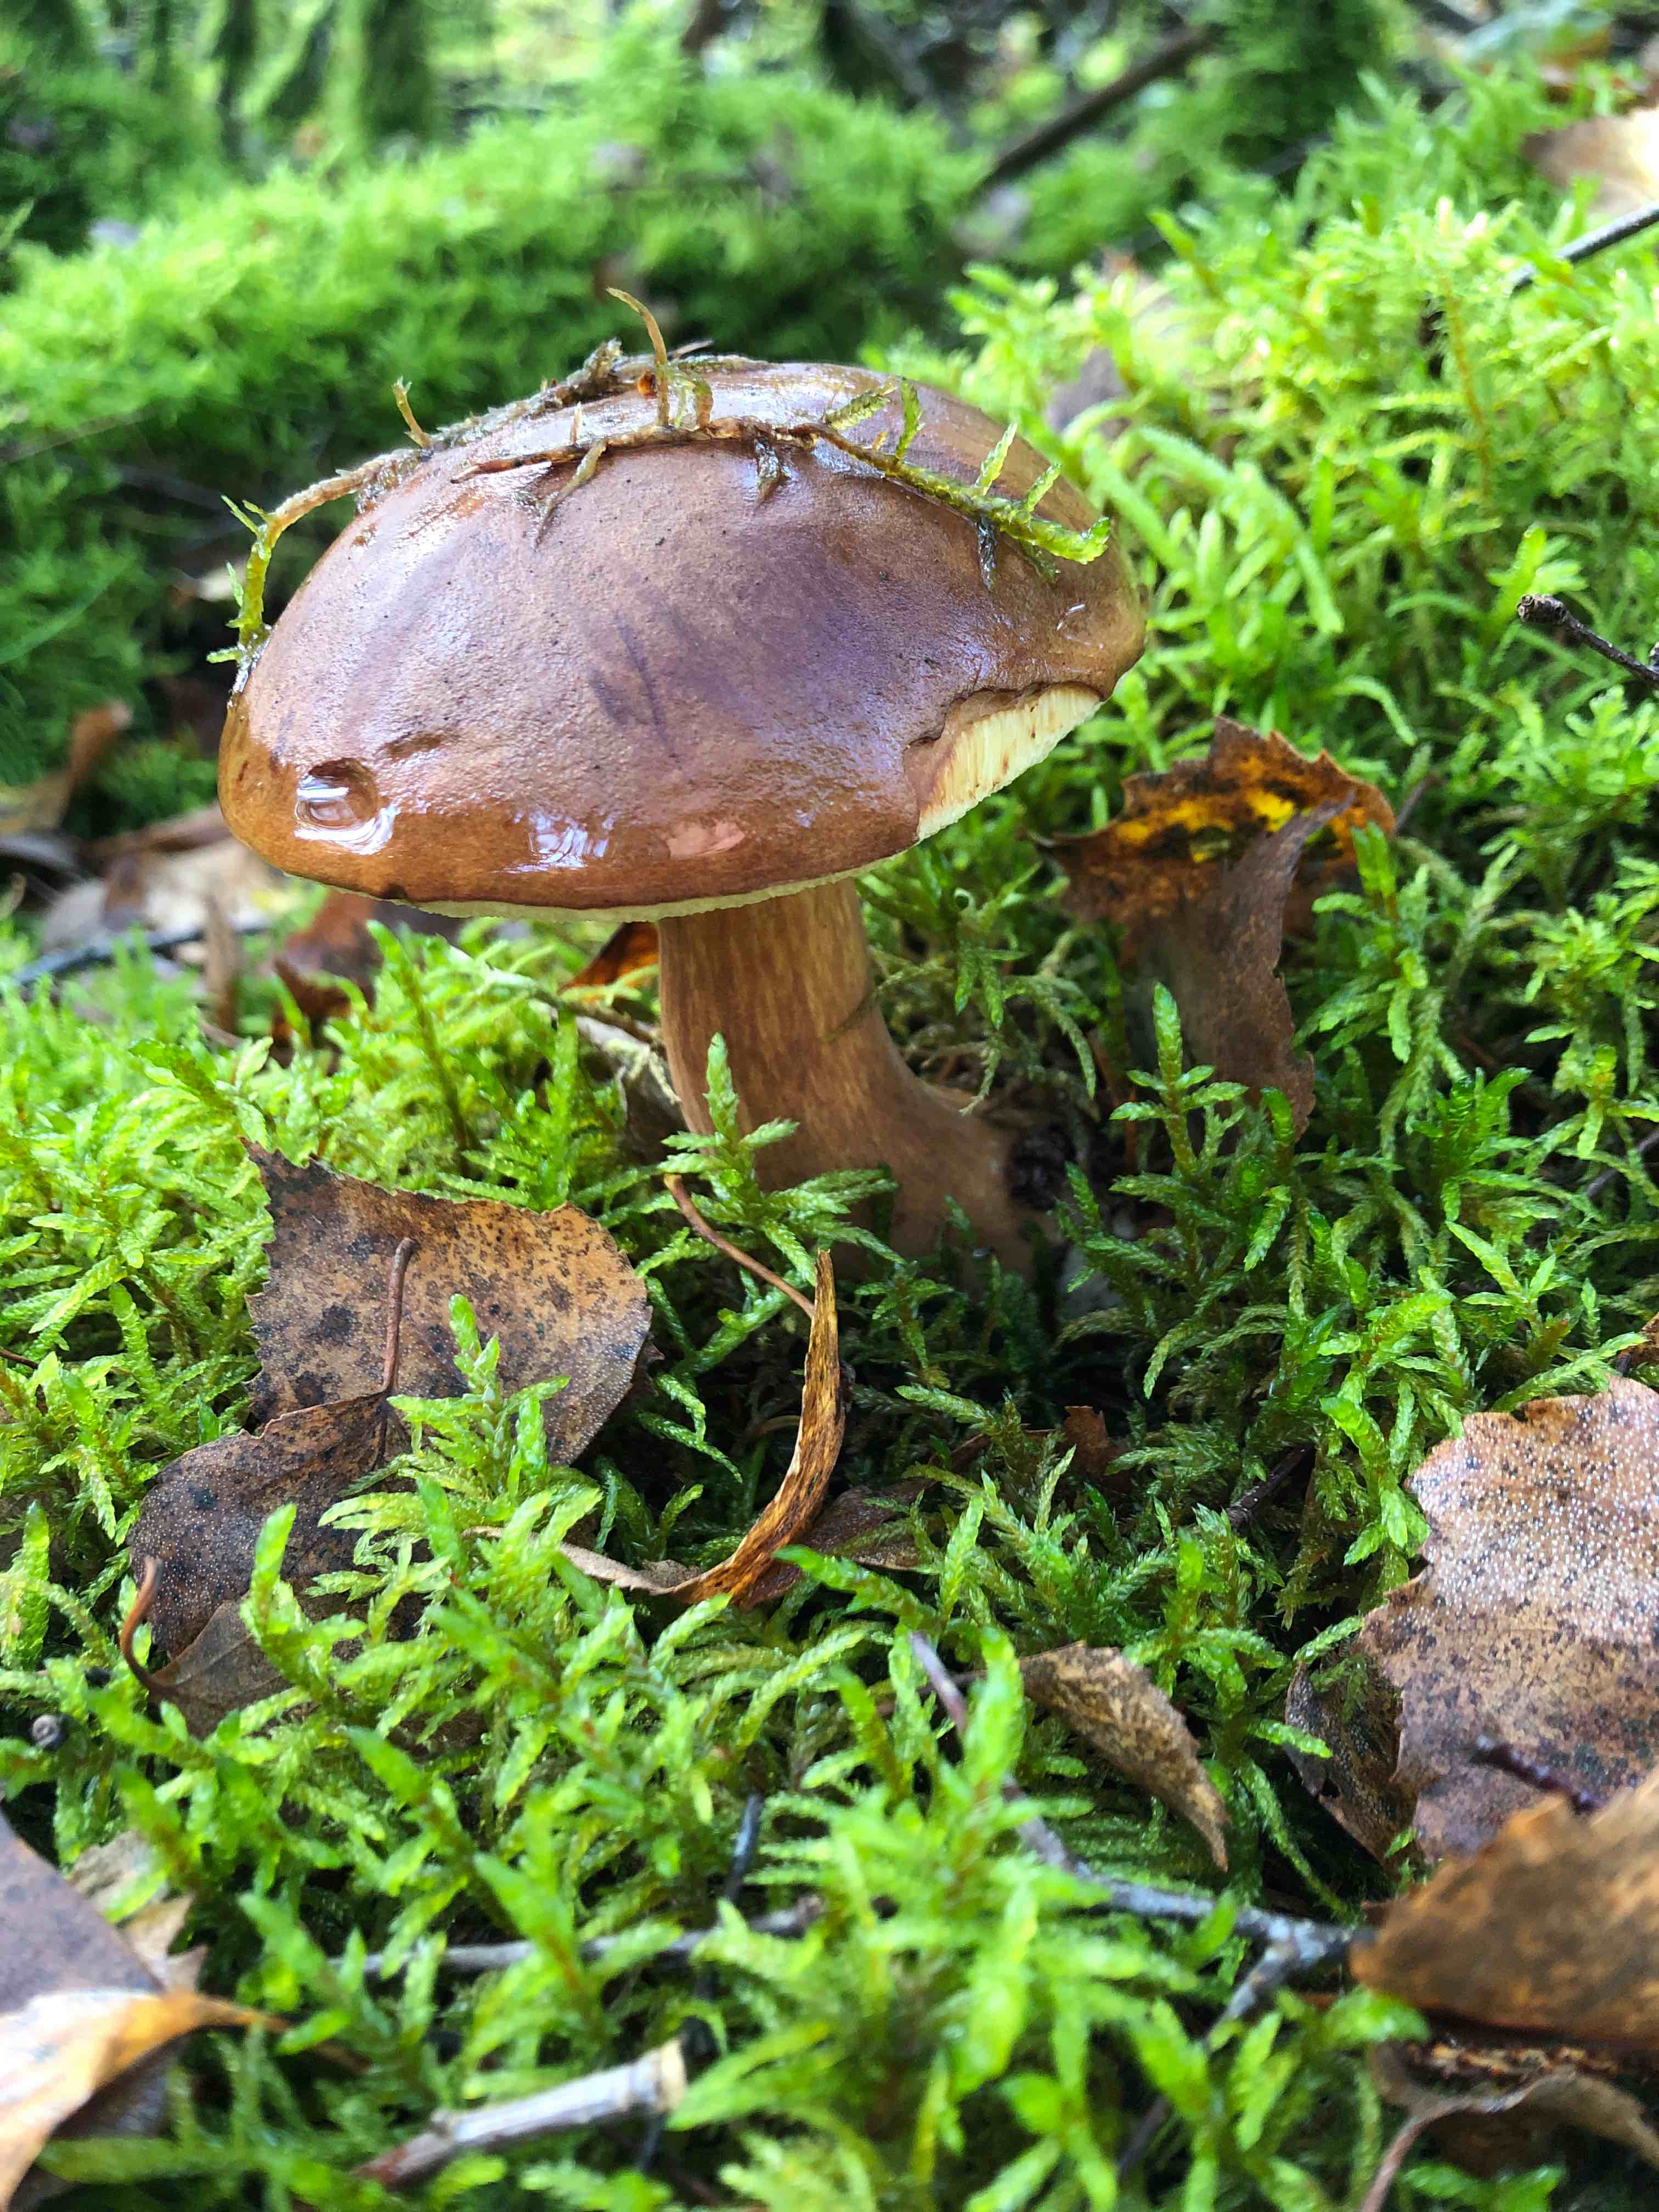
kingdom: Fungi
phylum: Basidiomycota
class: Agaricomycetes
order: Boletales
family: Boletaceae
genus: Imleria
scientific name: Imleria badia
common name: brunstokket rørhat
